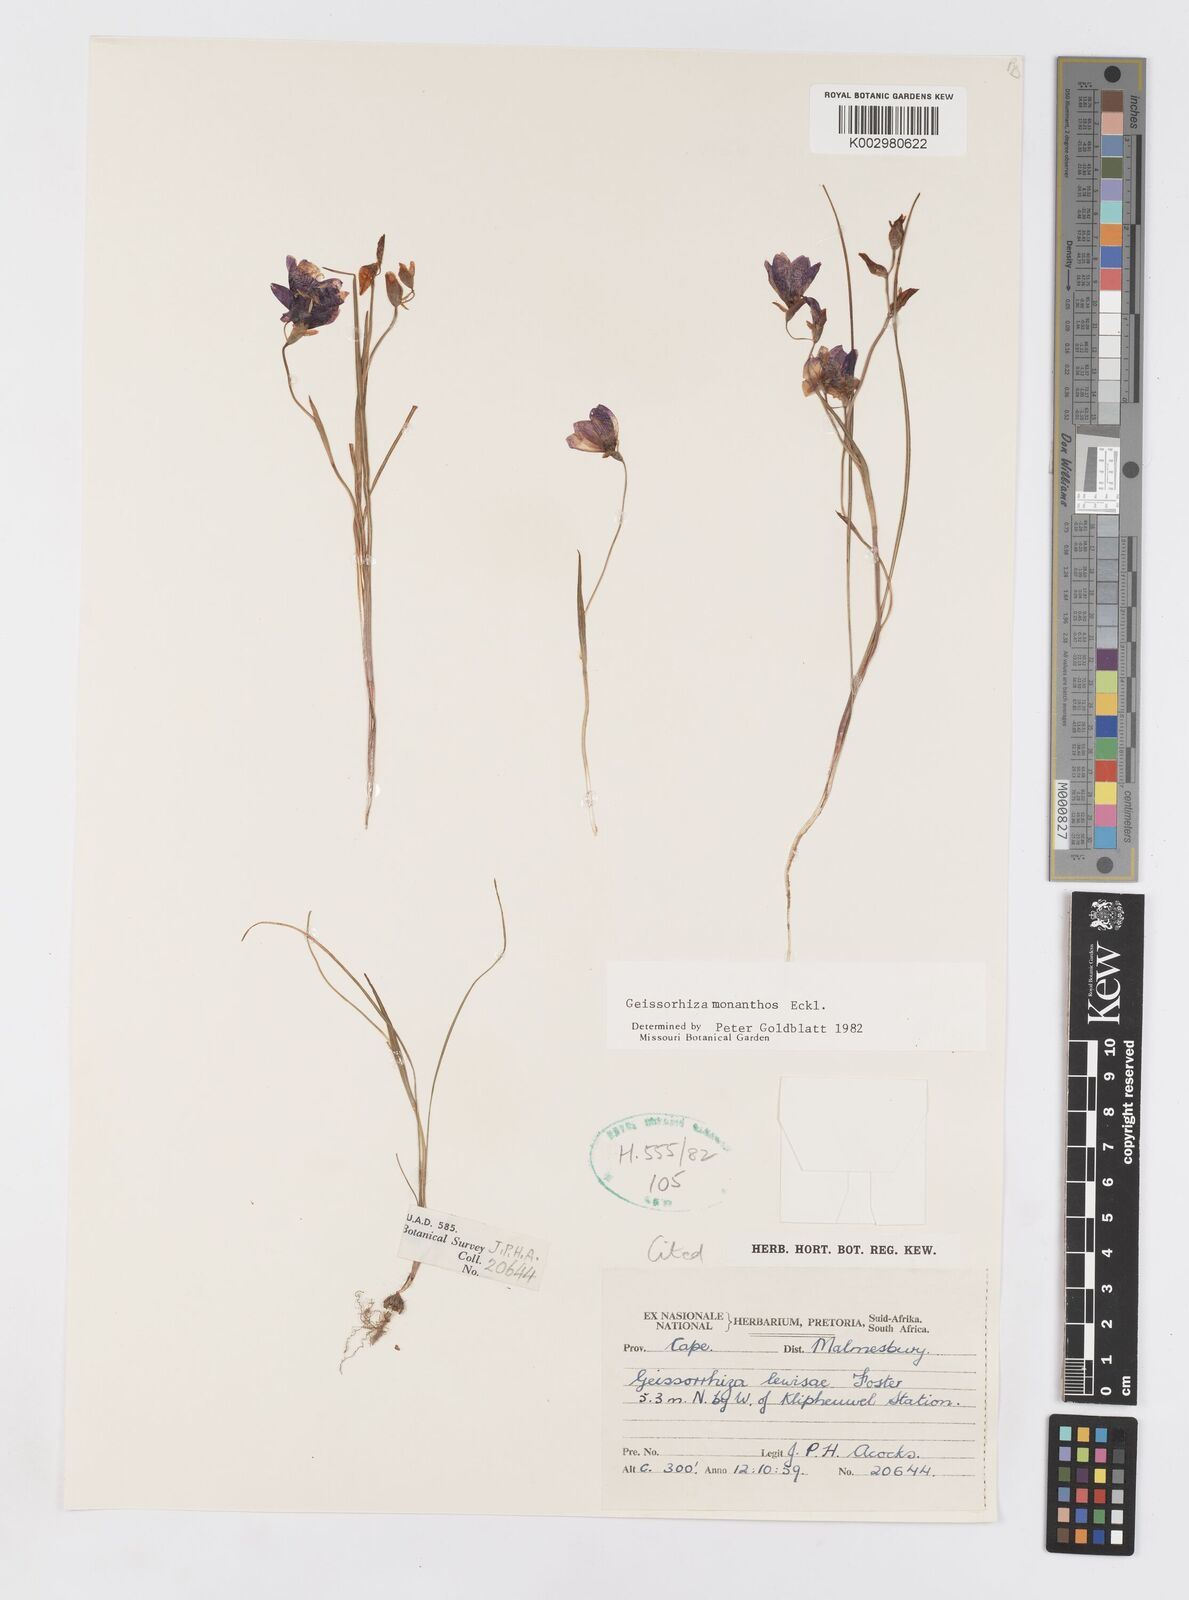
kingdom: Plantae
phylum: Tracheophyta
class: Liliopsida
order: Asparagales
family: Iridaceae
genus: Geissorhiza
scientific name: Geissorhiza monanthos
